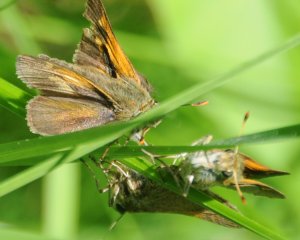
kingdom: Animalia
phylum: Arthropoda
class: Insecta
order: Lepidoptera
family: Hesperiidae
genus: Polites
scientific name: Polites themistocles
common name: Tawny-edged Skipper
